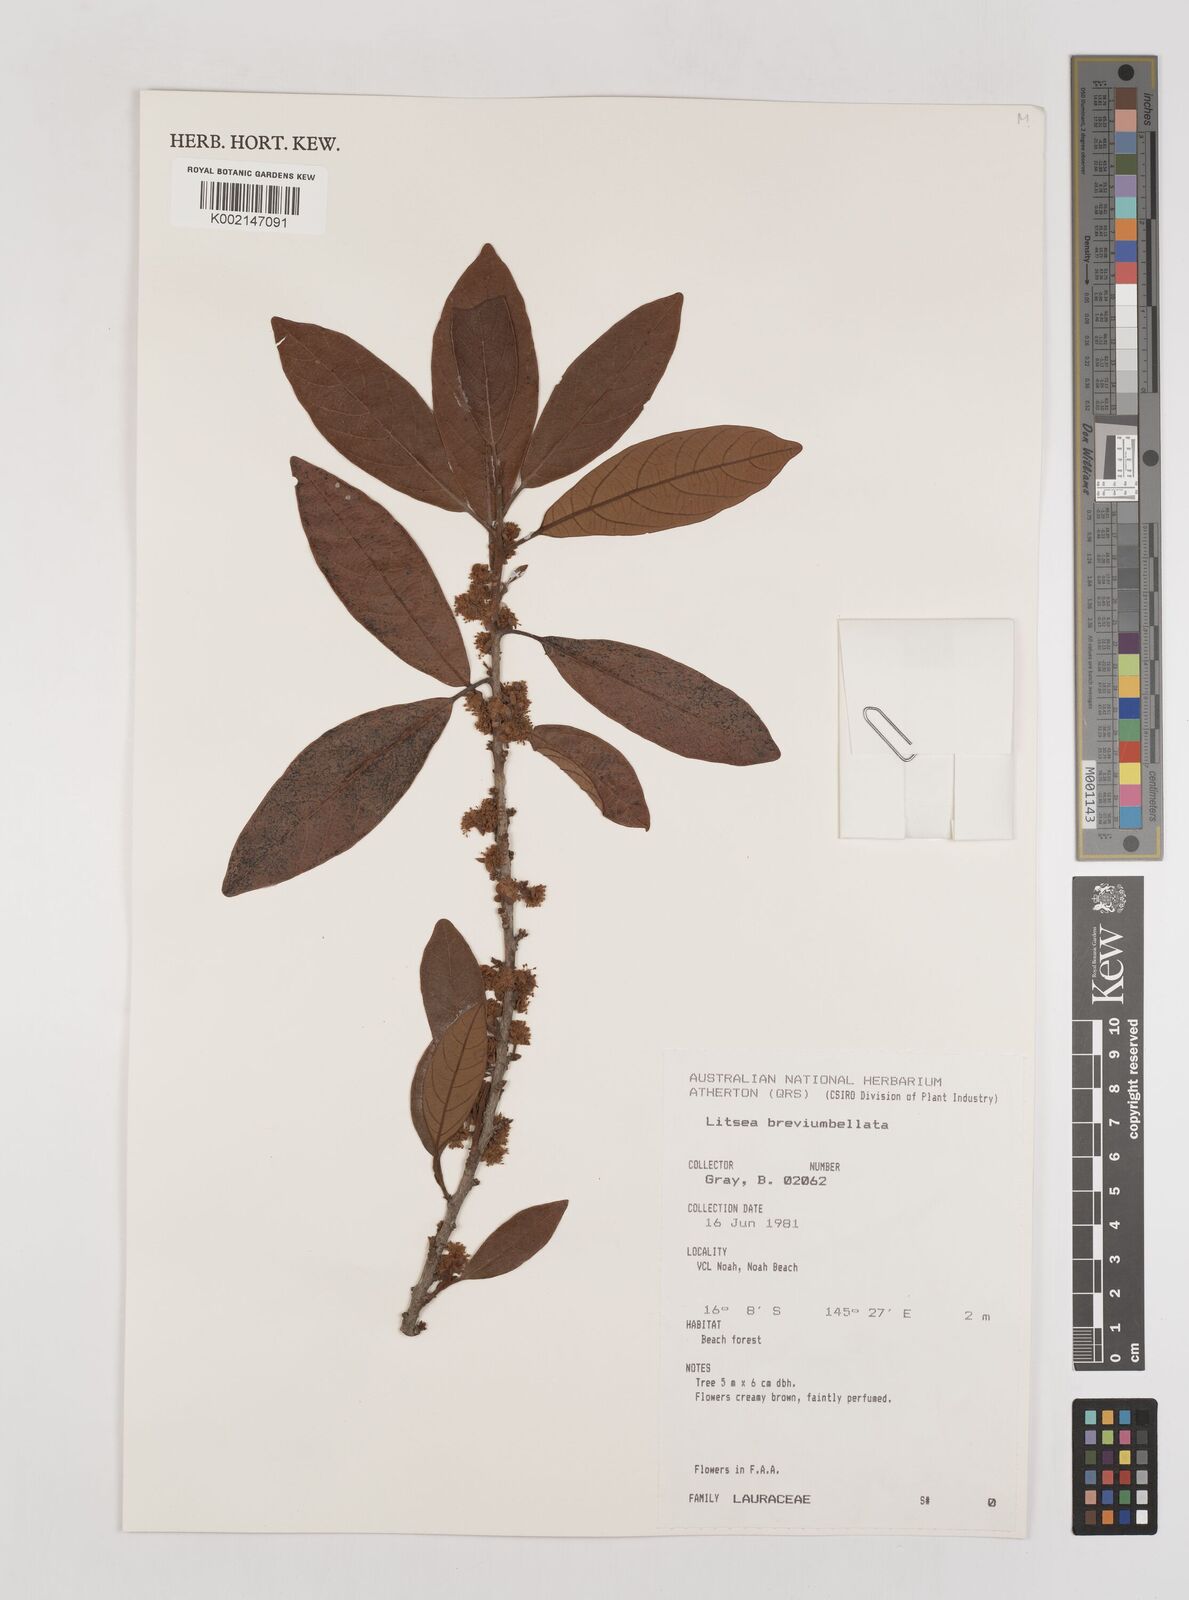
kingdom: Plantae
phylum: Tracheophyta
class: Magnoliopsida
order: Laurales
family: Lauraceae
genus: Litsea
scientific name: Litsea breviumbellata
